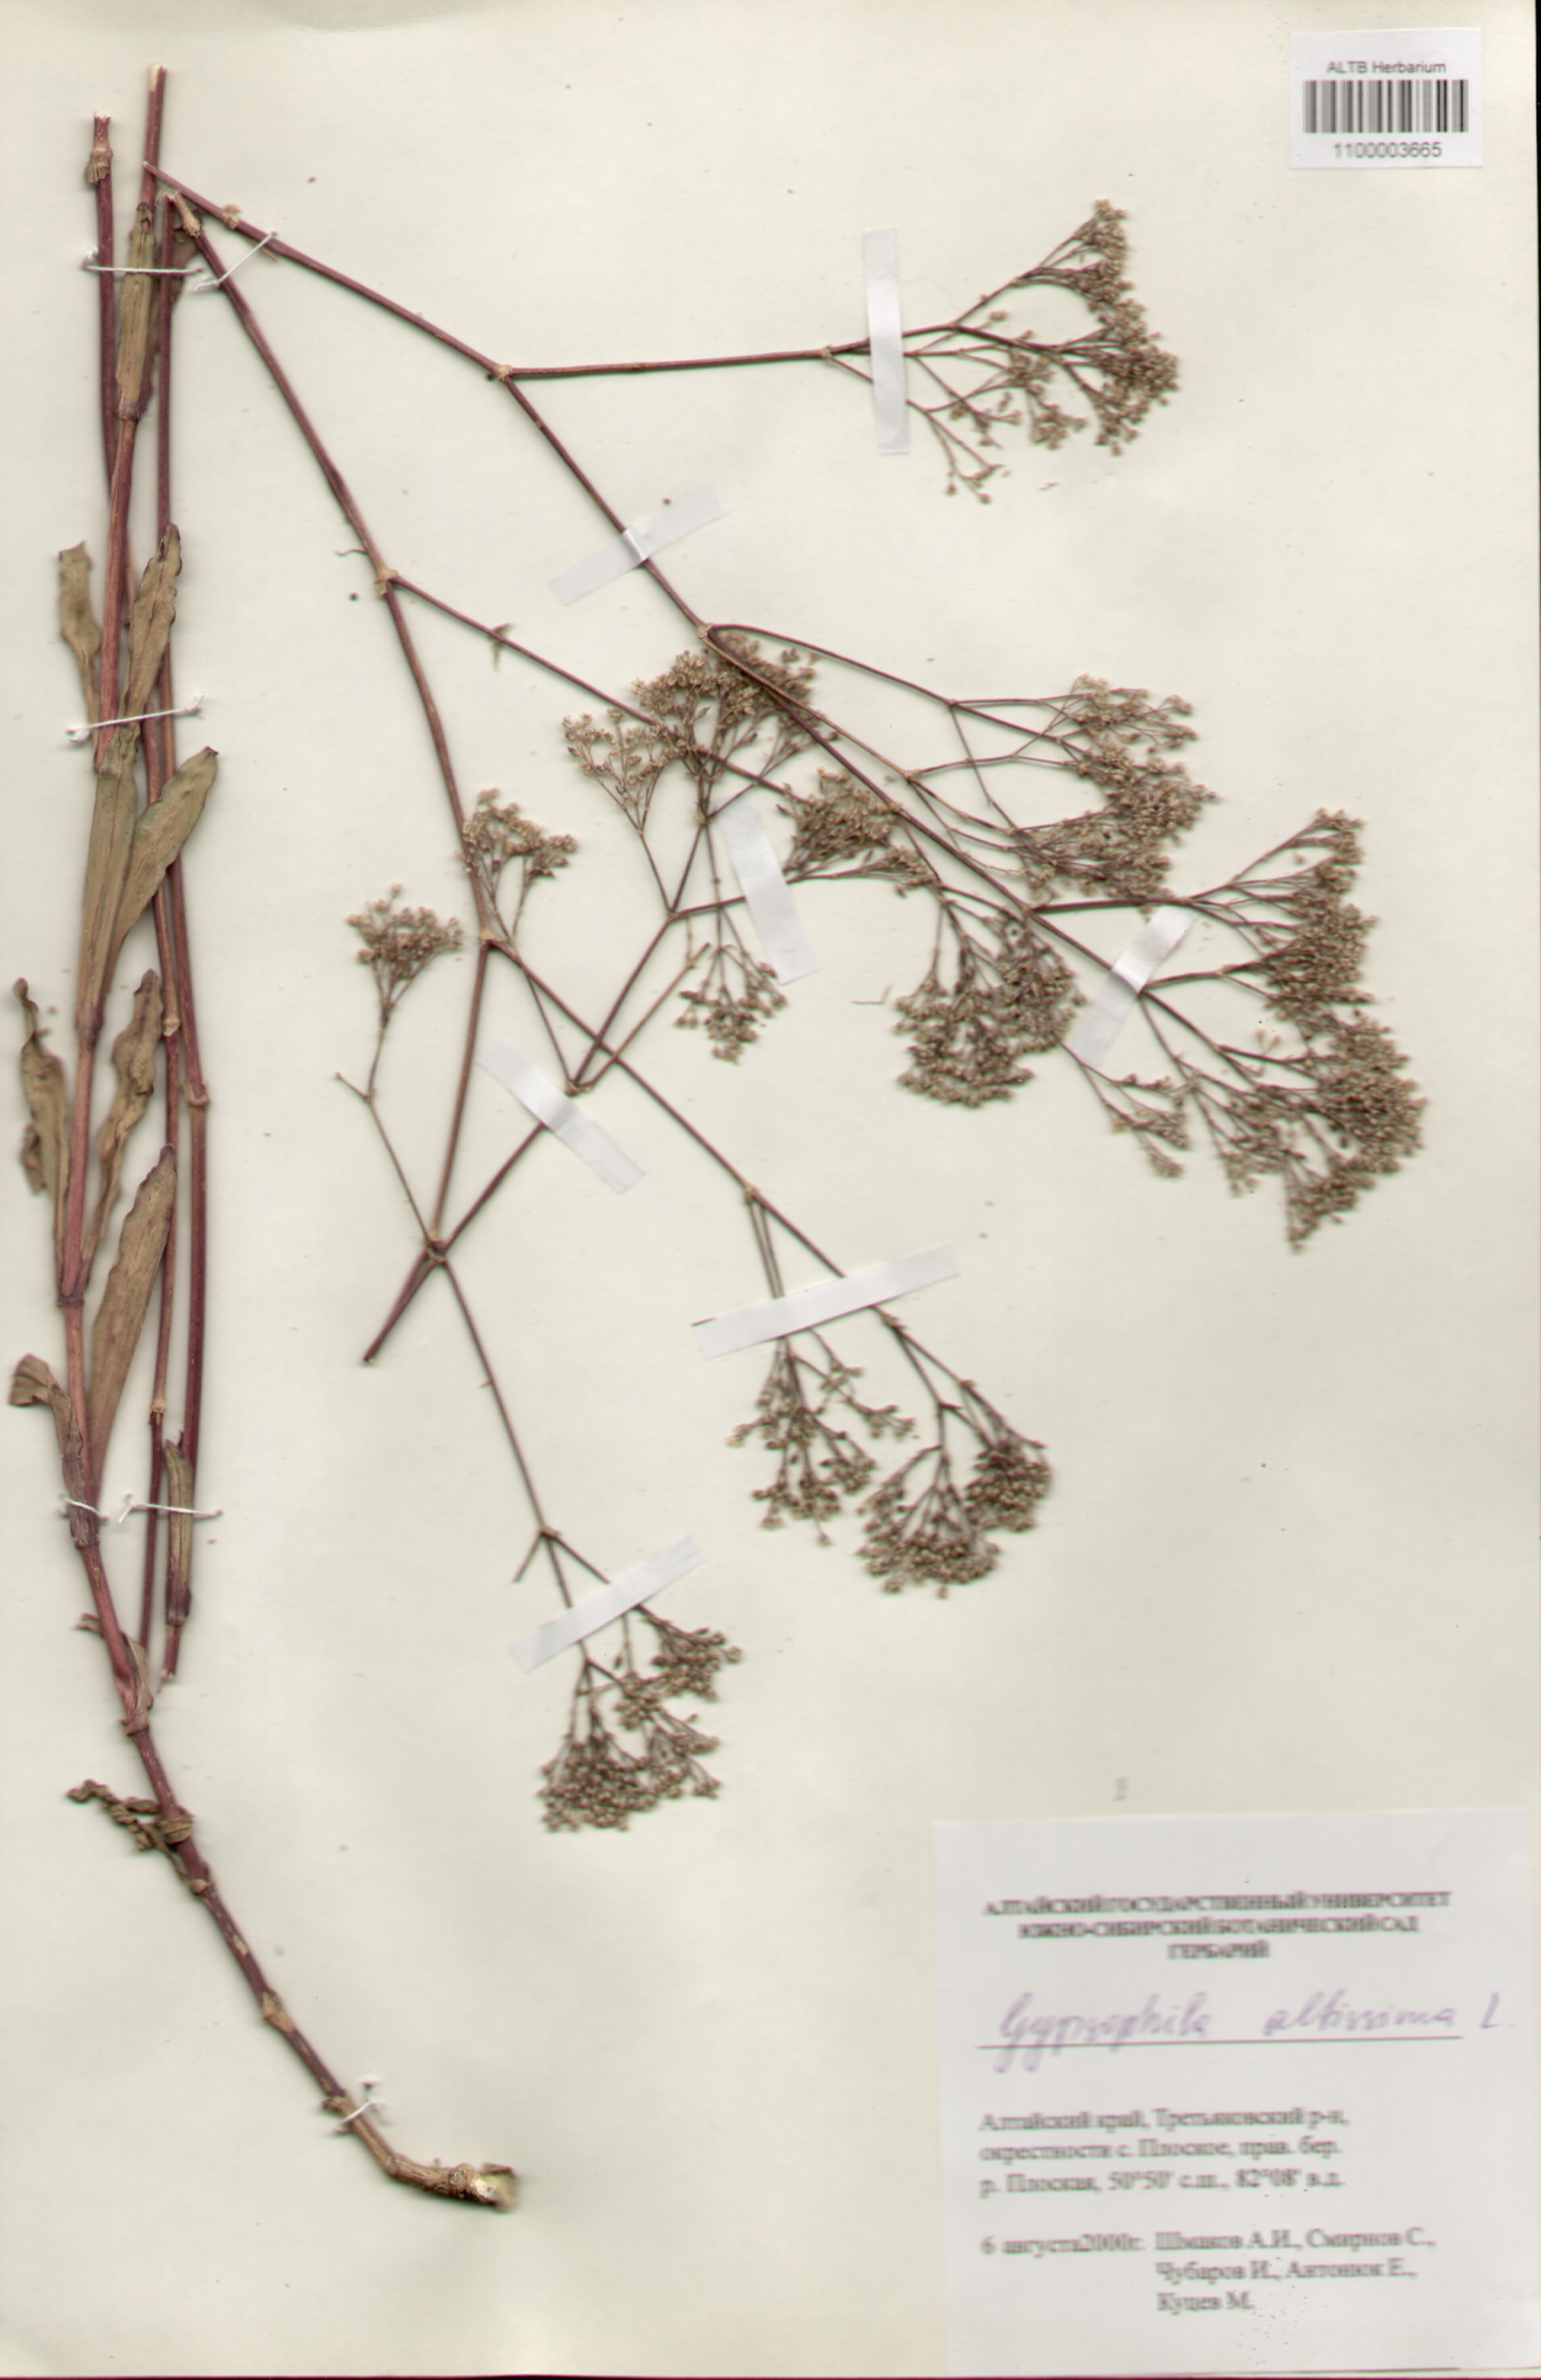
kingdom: Plantae
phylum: Tracheophyta
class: Magnoliopsida
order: Caryophyllales
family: Caryophyllaceae
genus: Gypsophila
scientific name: Gypsophila altissima
